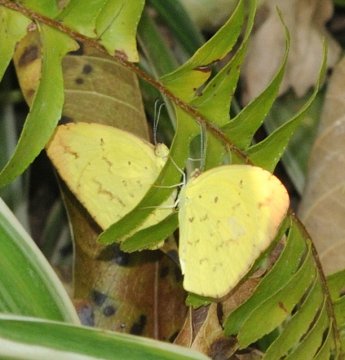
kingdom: Animalia
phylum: Arthropoda
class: Insecta
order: Lepidoptera
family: Pieridae
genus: Eurema
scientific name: Eurema desjardinsii
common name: Angled Grass Yellow
